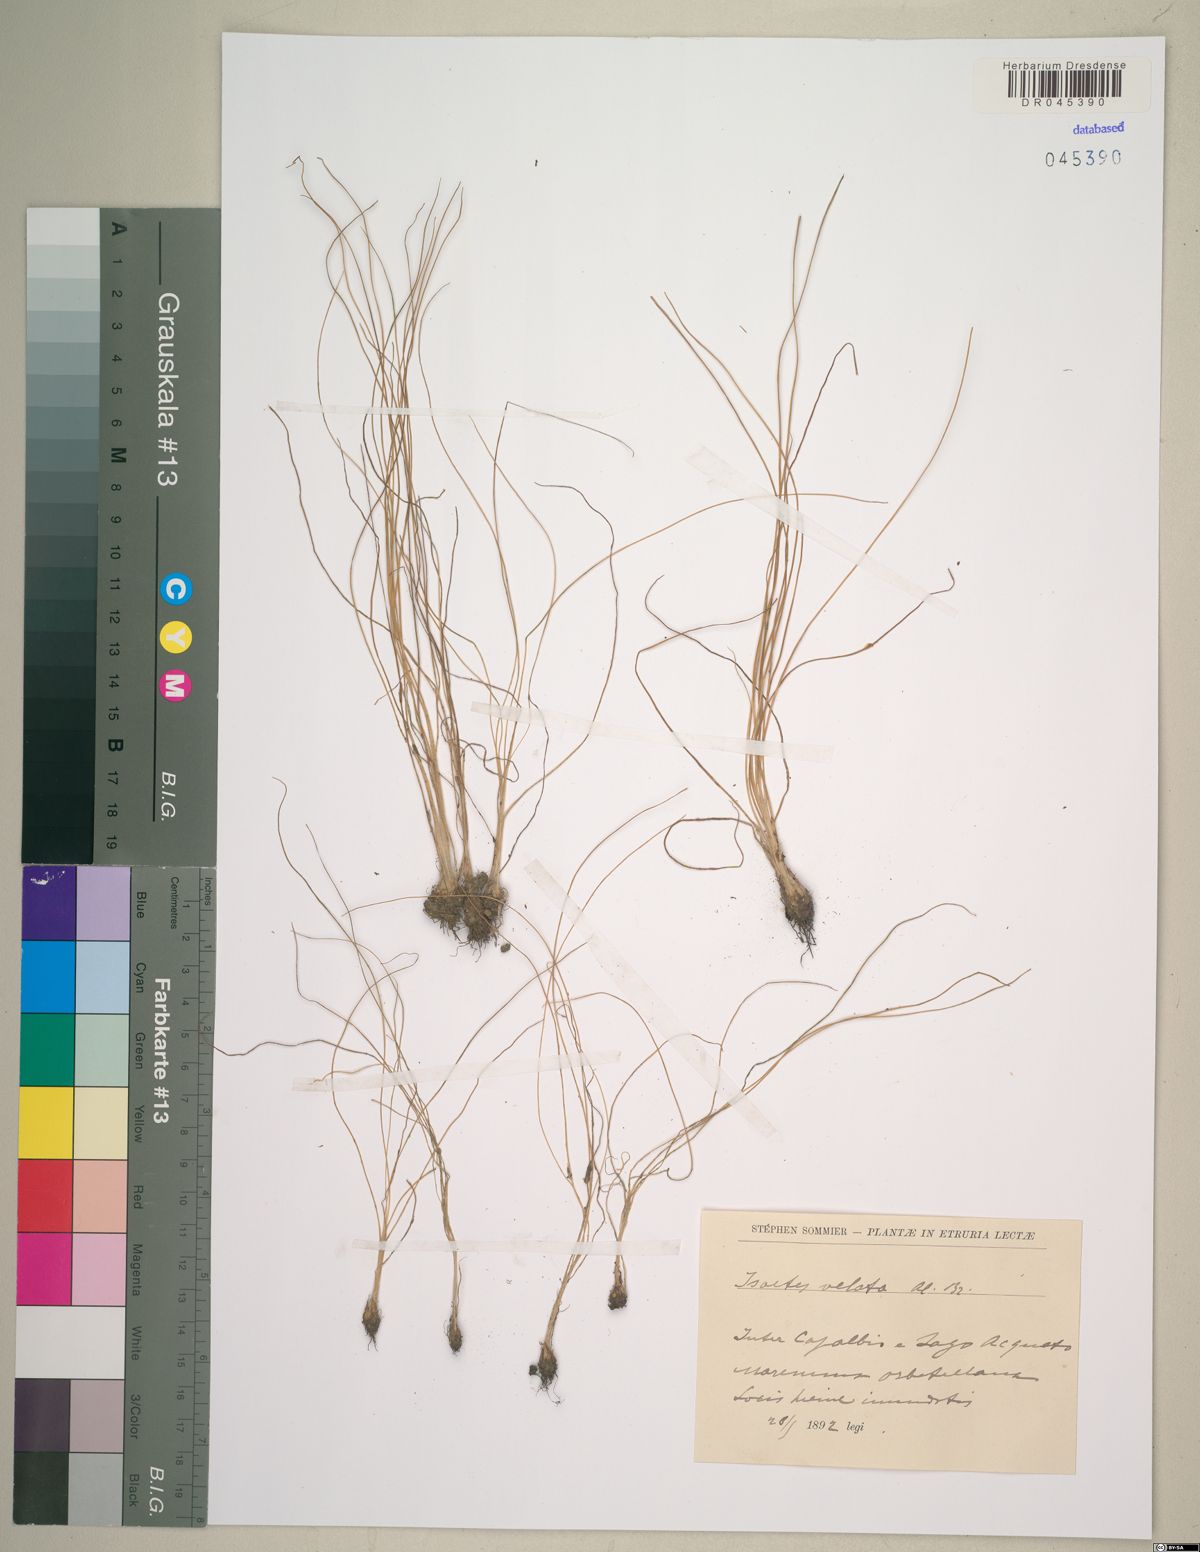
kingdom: Plantae
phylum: Tracheophyta
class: Lycopodiopsida
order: Isoetales
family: Isoetaceae
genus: Isoetes
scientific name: Isoetes longissima
